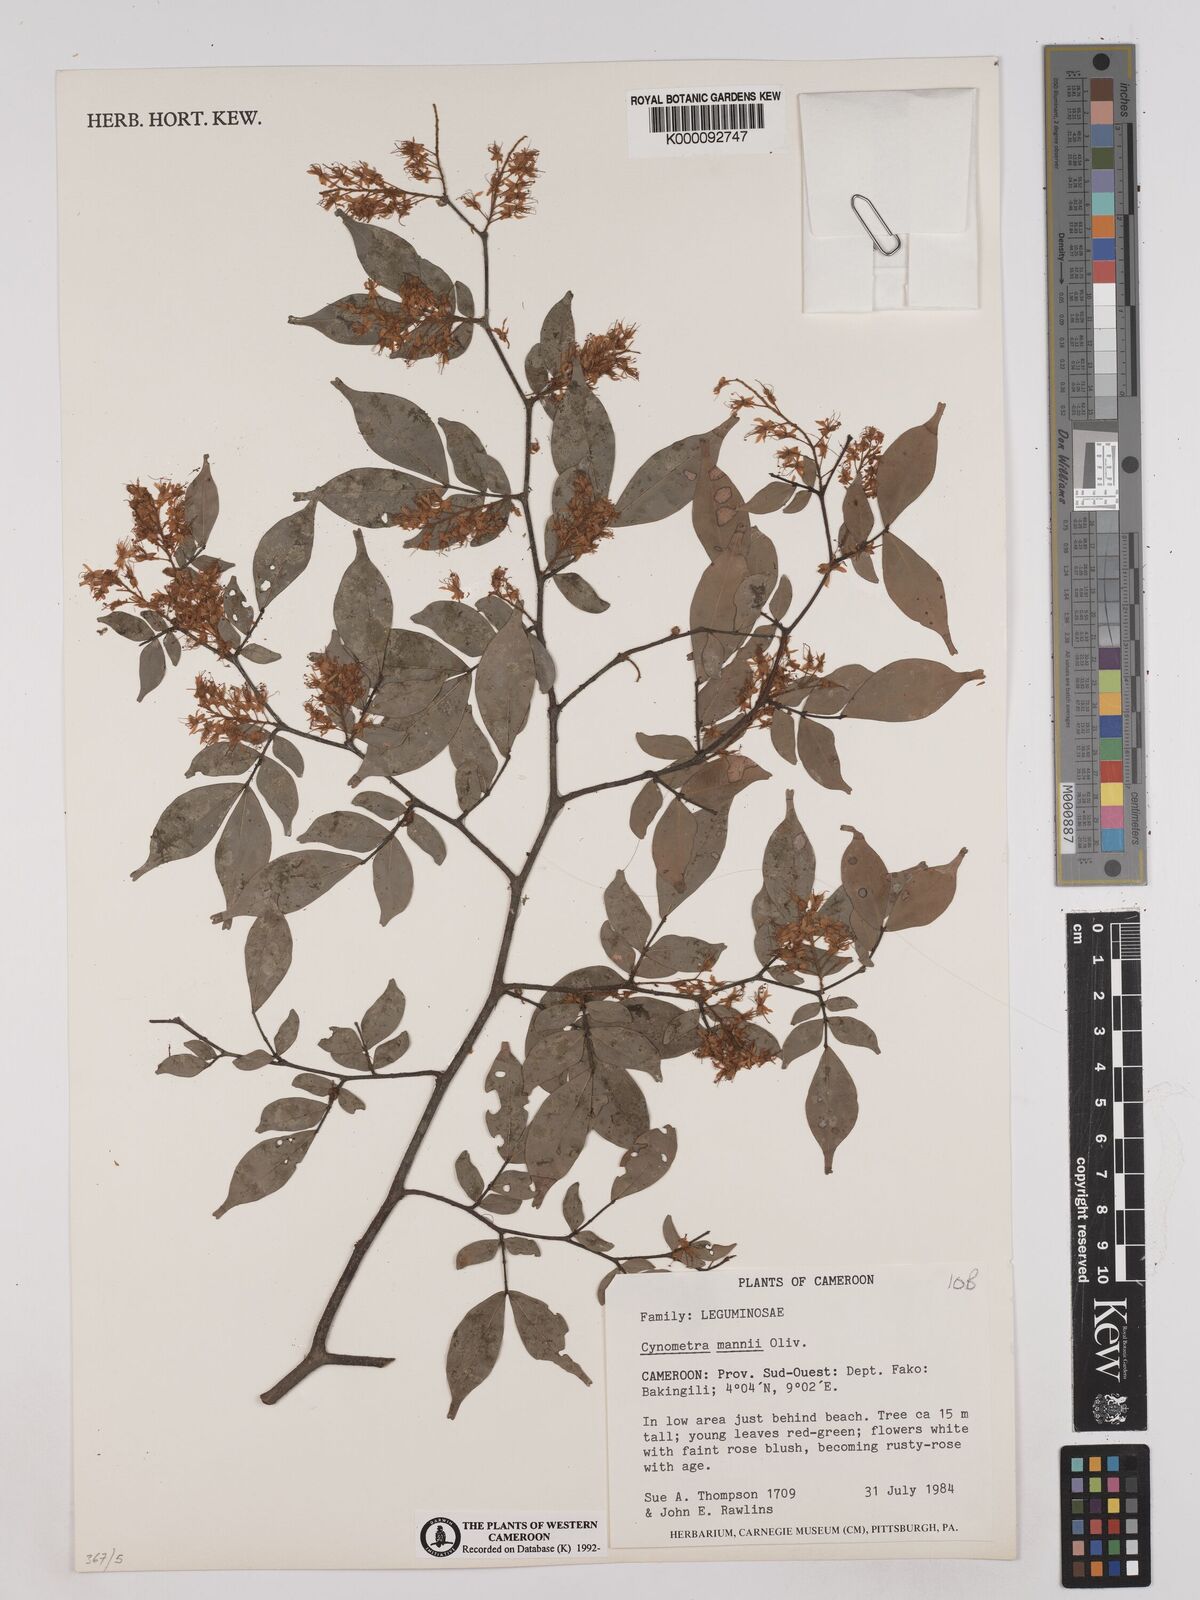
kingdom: Plantae
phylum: Tracheophyta
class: Magnoliopsida
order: Fabales
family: Fabaceae
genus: Cynometra
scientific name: Cynometra mannii
